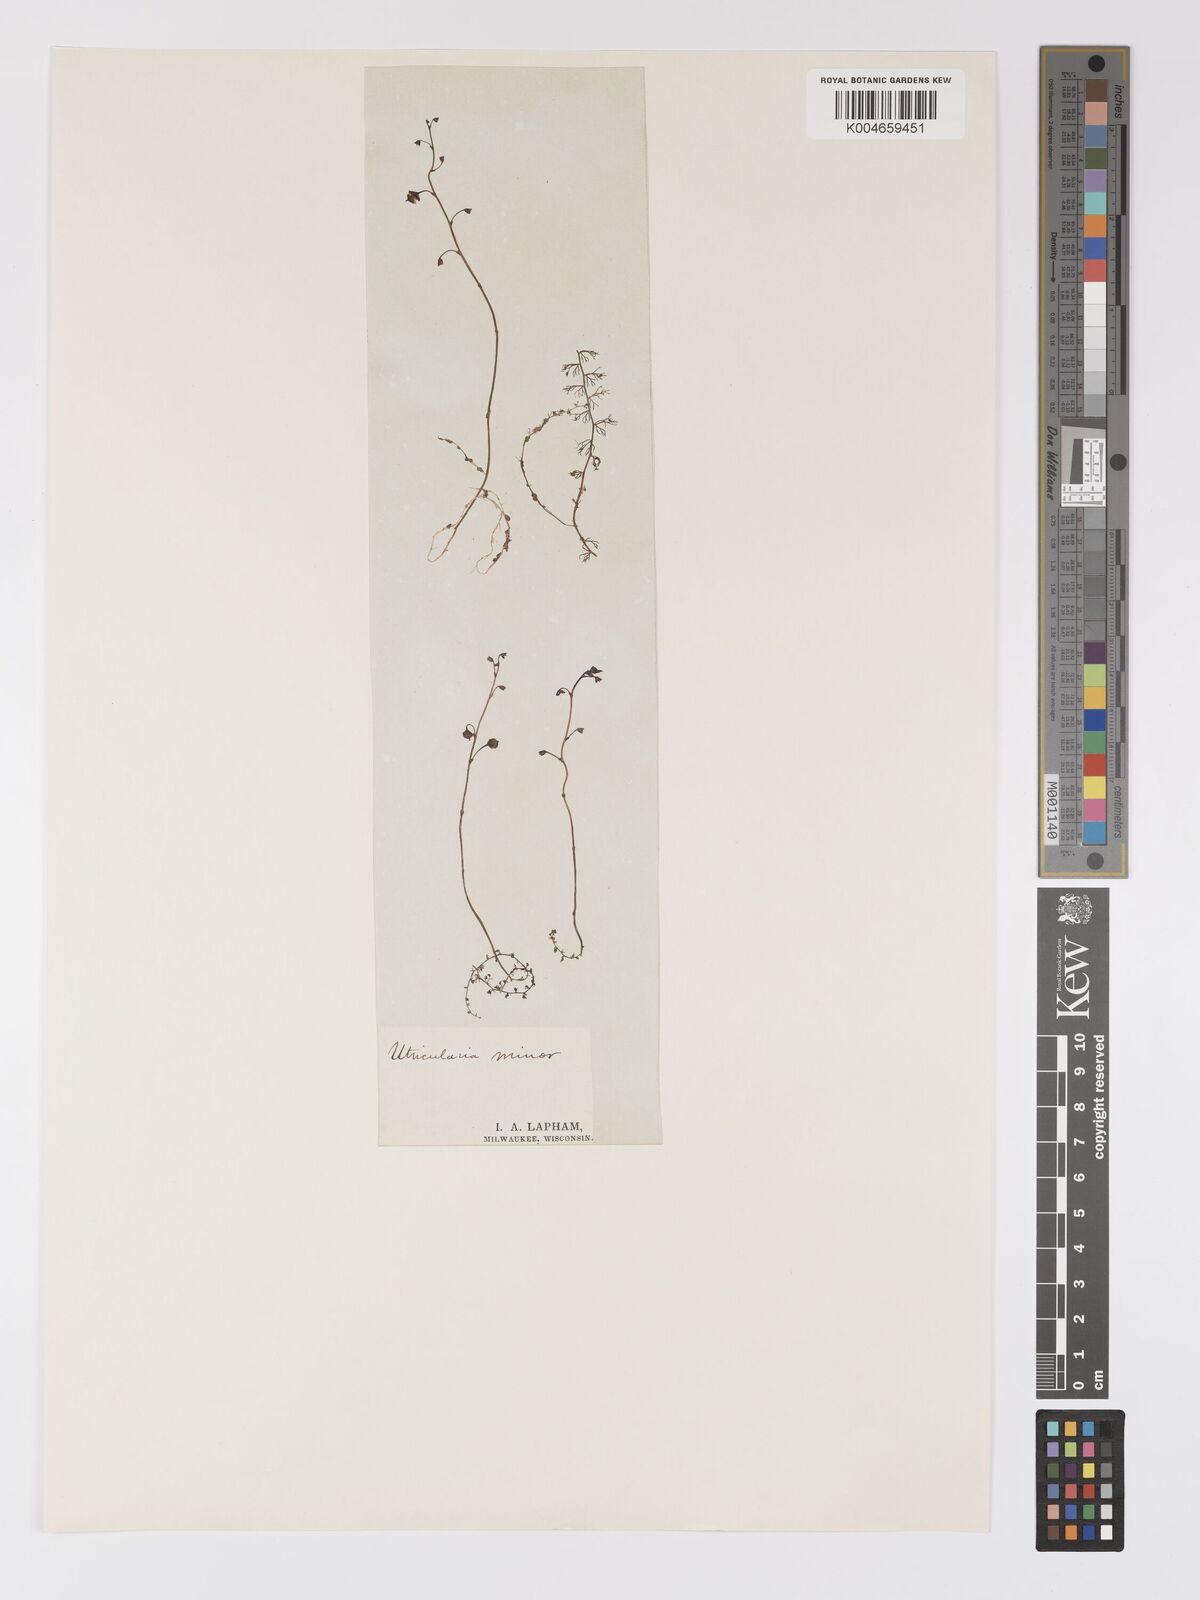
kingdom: Plantae
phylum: Tracheophyta
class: Magnoliopsida
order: Lamiales
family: Lentibulariaceae
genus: Utricularia
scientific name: Utricularia minor
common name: Lesser bladderwort
